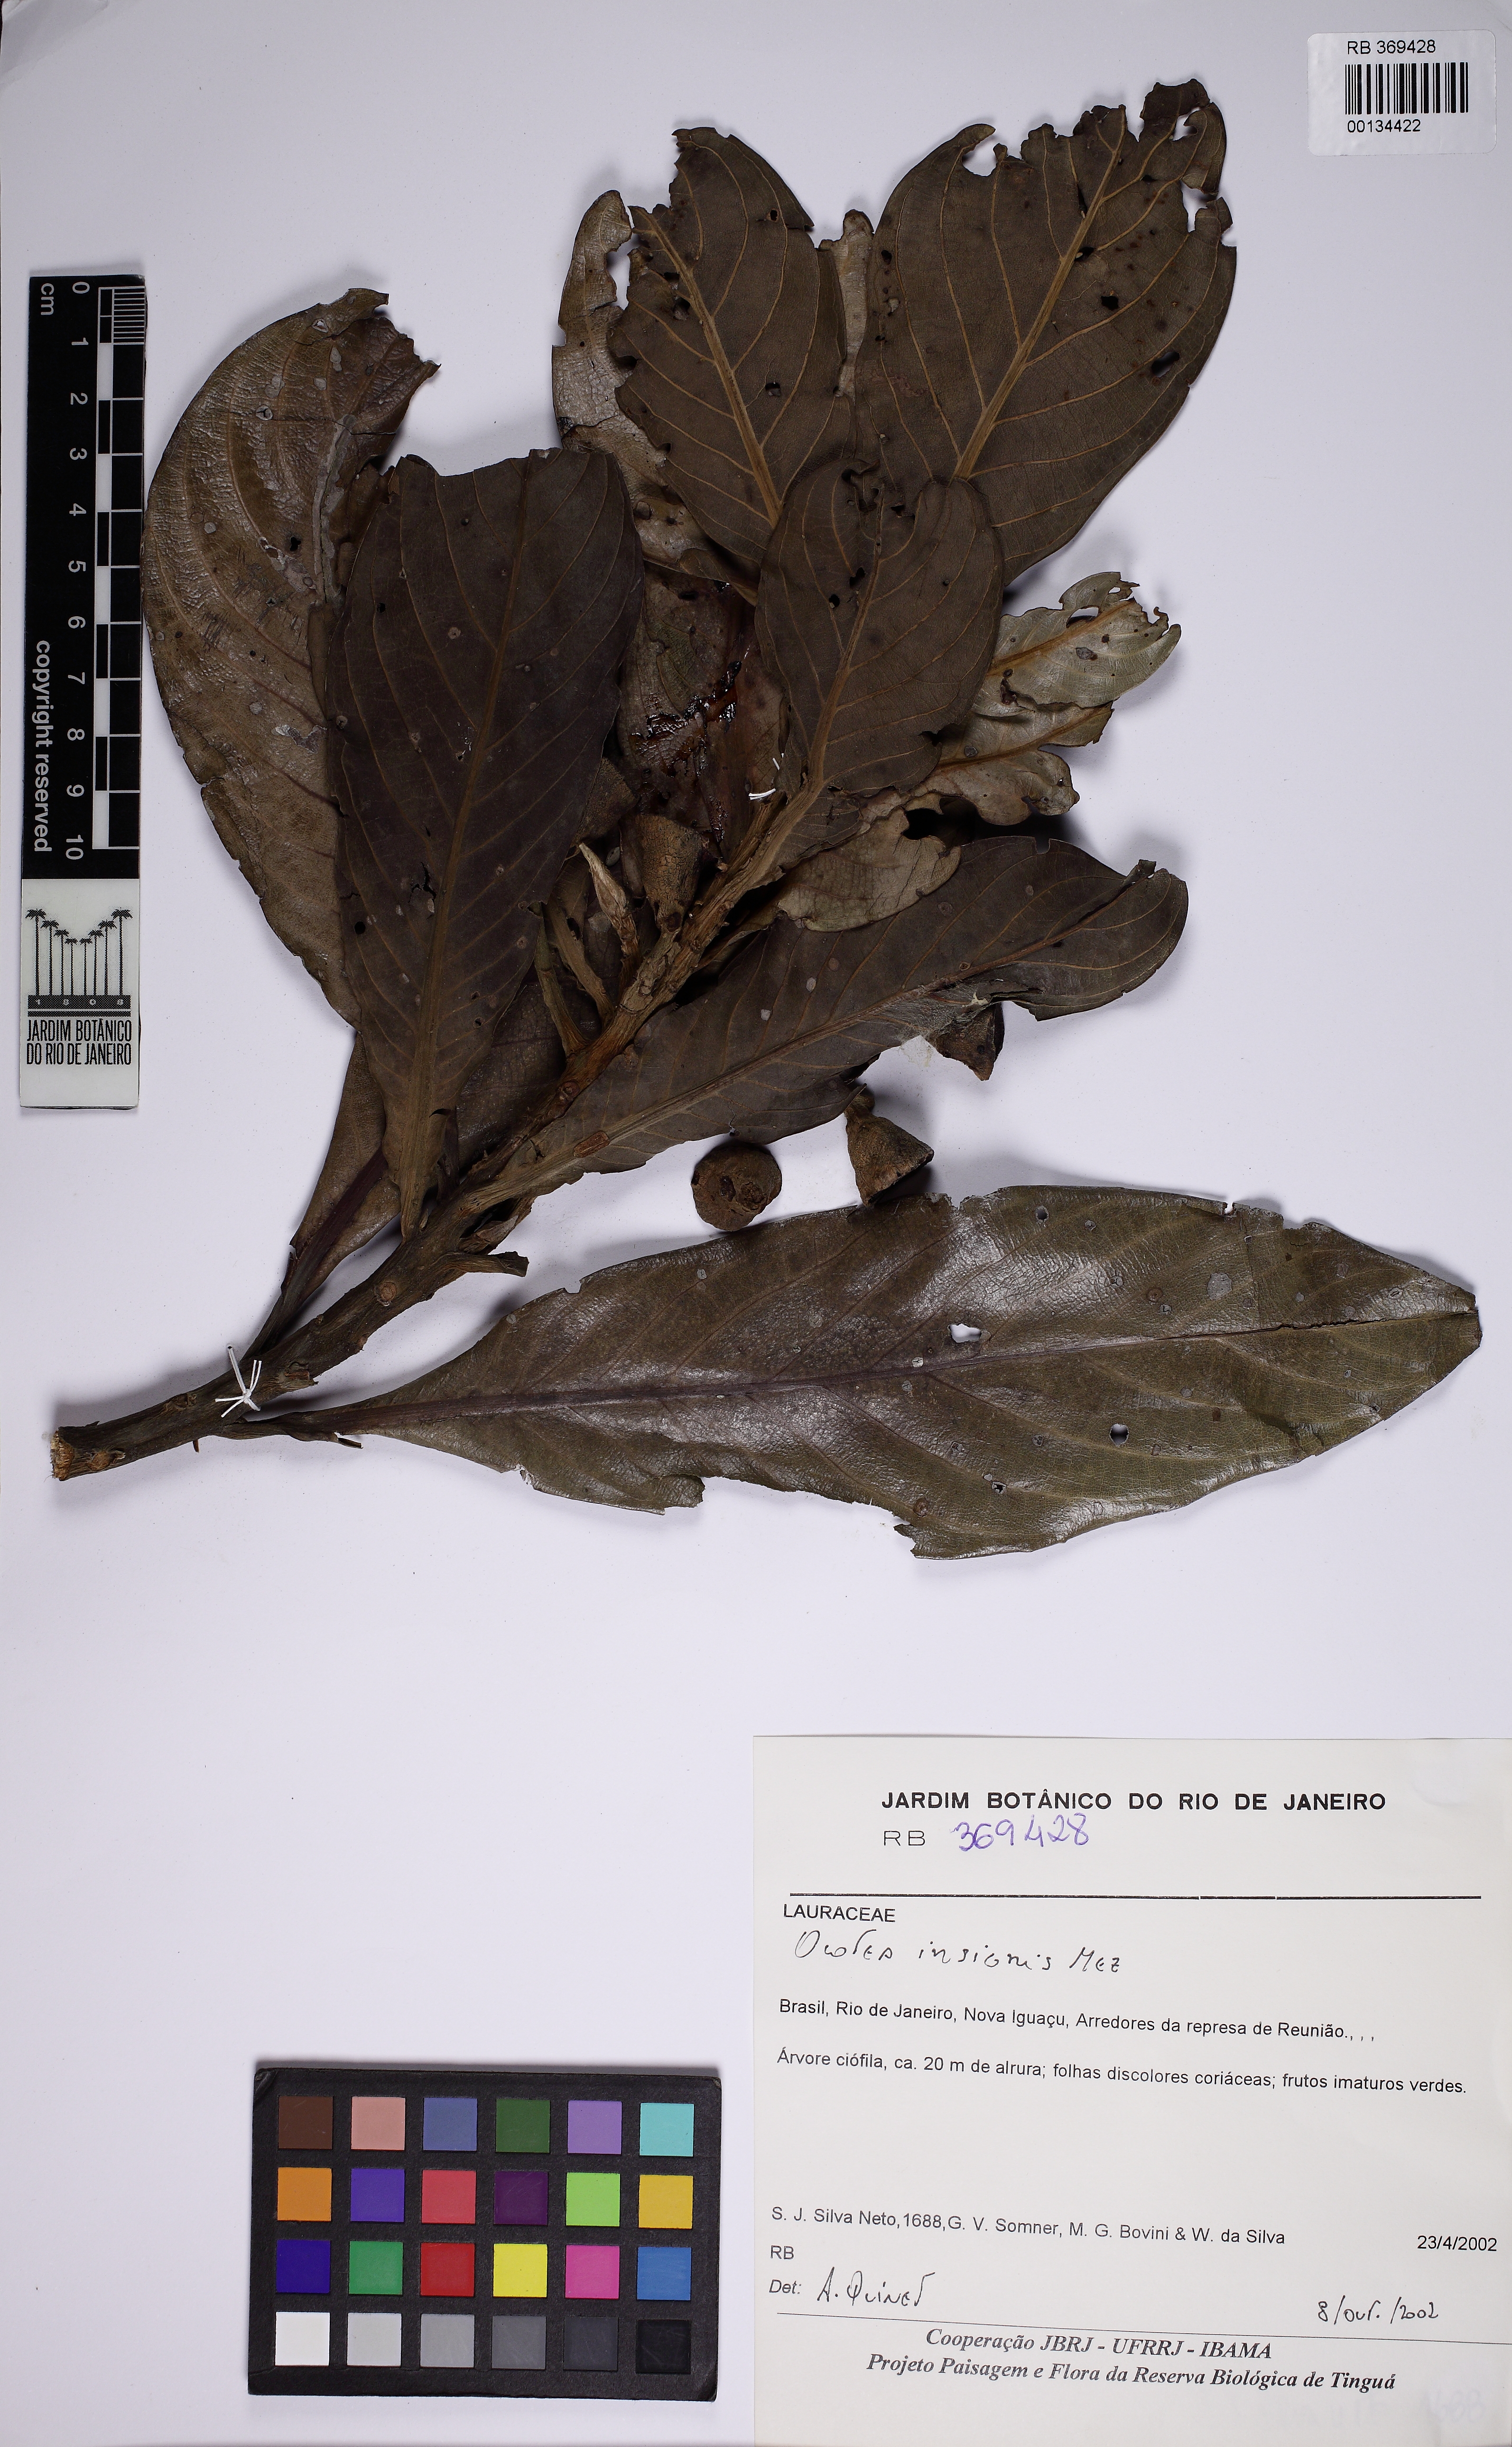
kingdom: Plantae
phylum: Tracheophyta
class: Magnoliopsida
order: Laurales
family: Lauraceae
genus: Ocotea
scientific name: Ocotea insignis
